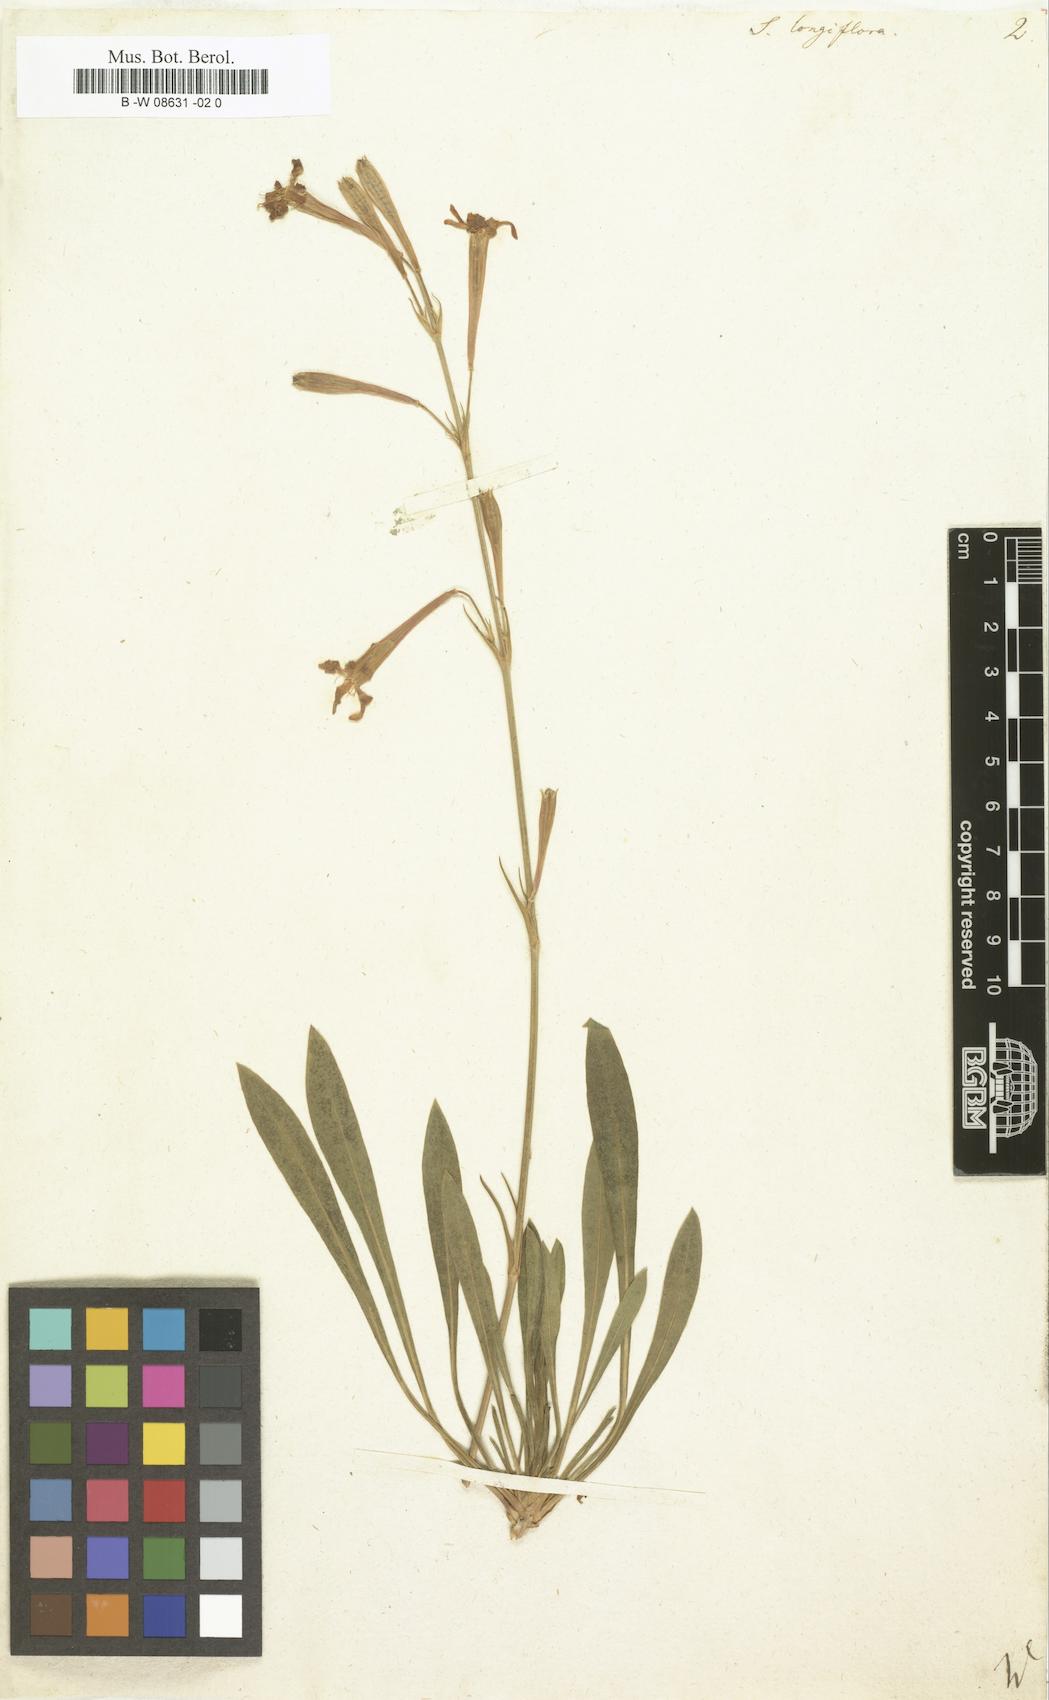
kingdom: Plantae
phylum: Tracheophyta
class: Magnoliopsida
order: Caryophyllales
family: Caryophyllaceae
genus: Silene
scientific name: Silene
